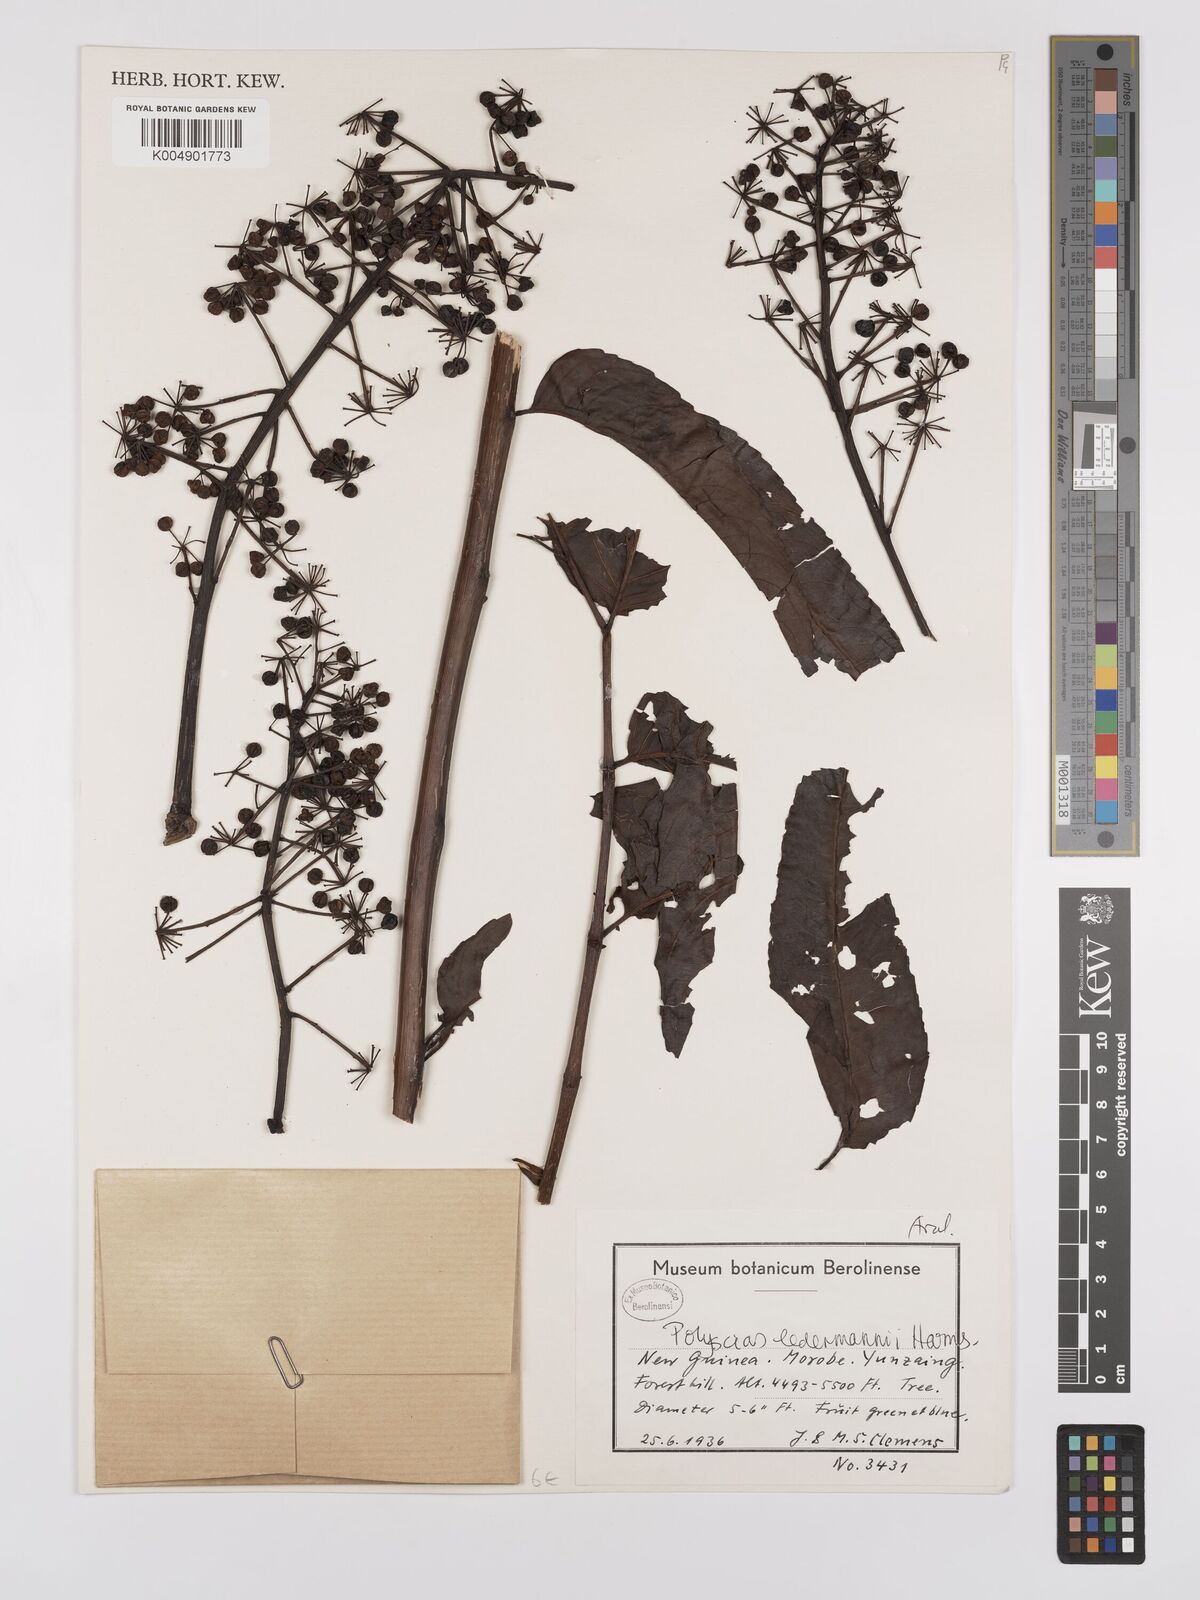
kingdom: Plantae
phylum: Tracheophyta
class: Magnoliopsida
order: Apiales
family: Araliaceae
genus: Polyscias
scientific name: Polyscias ledermannii
